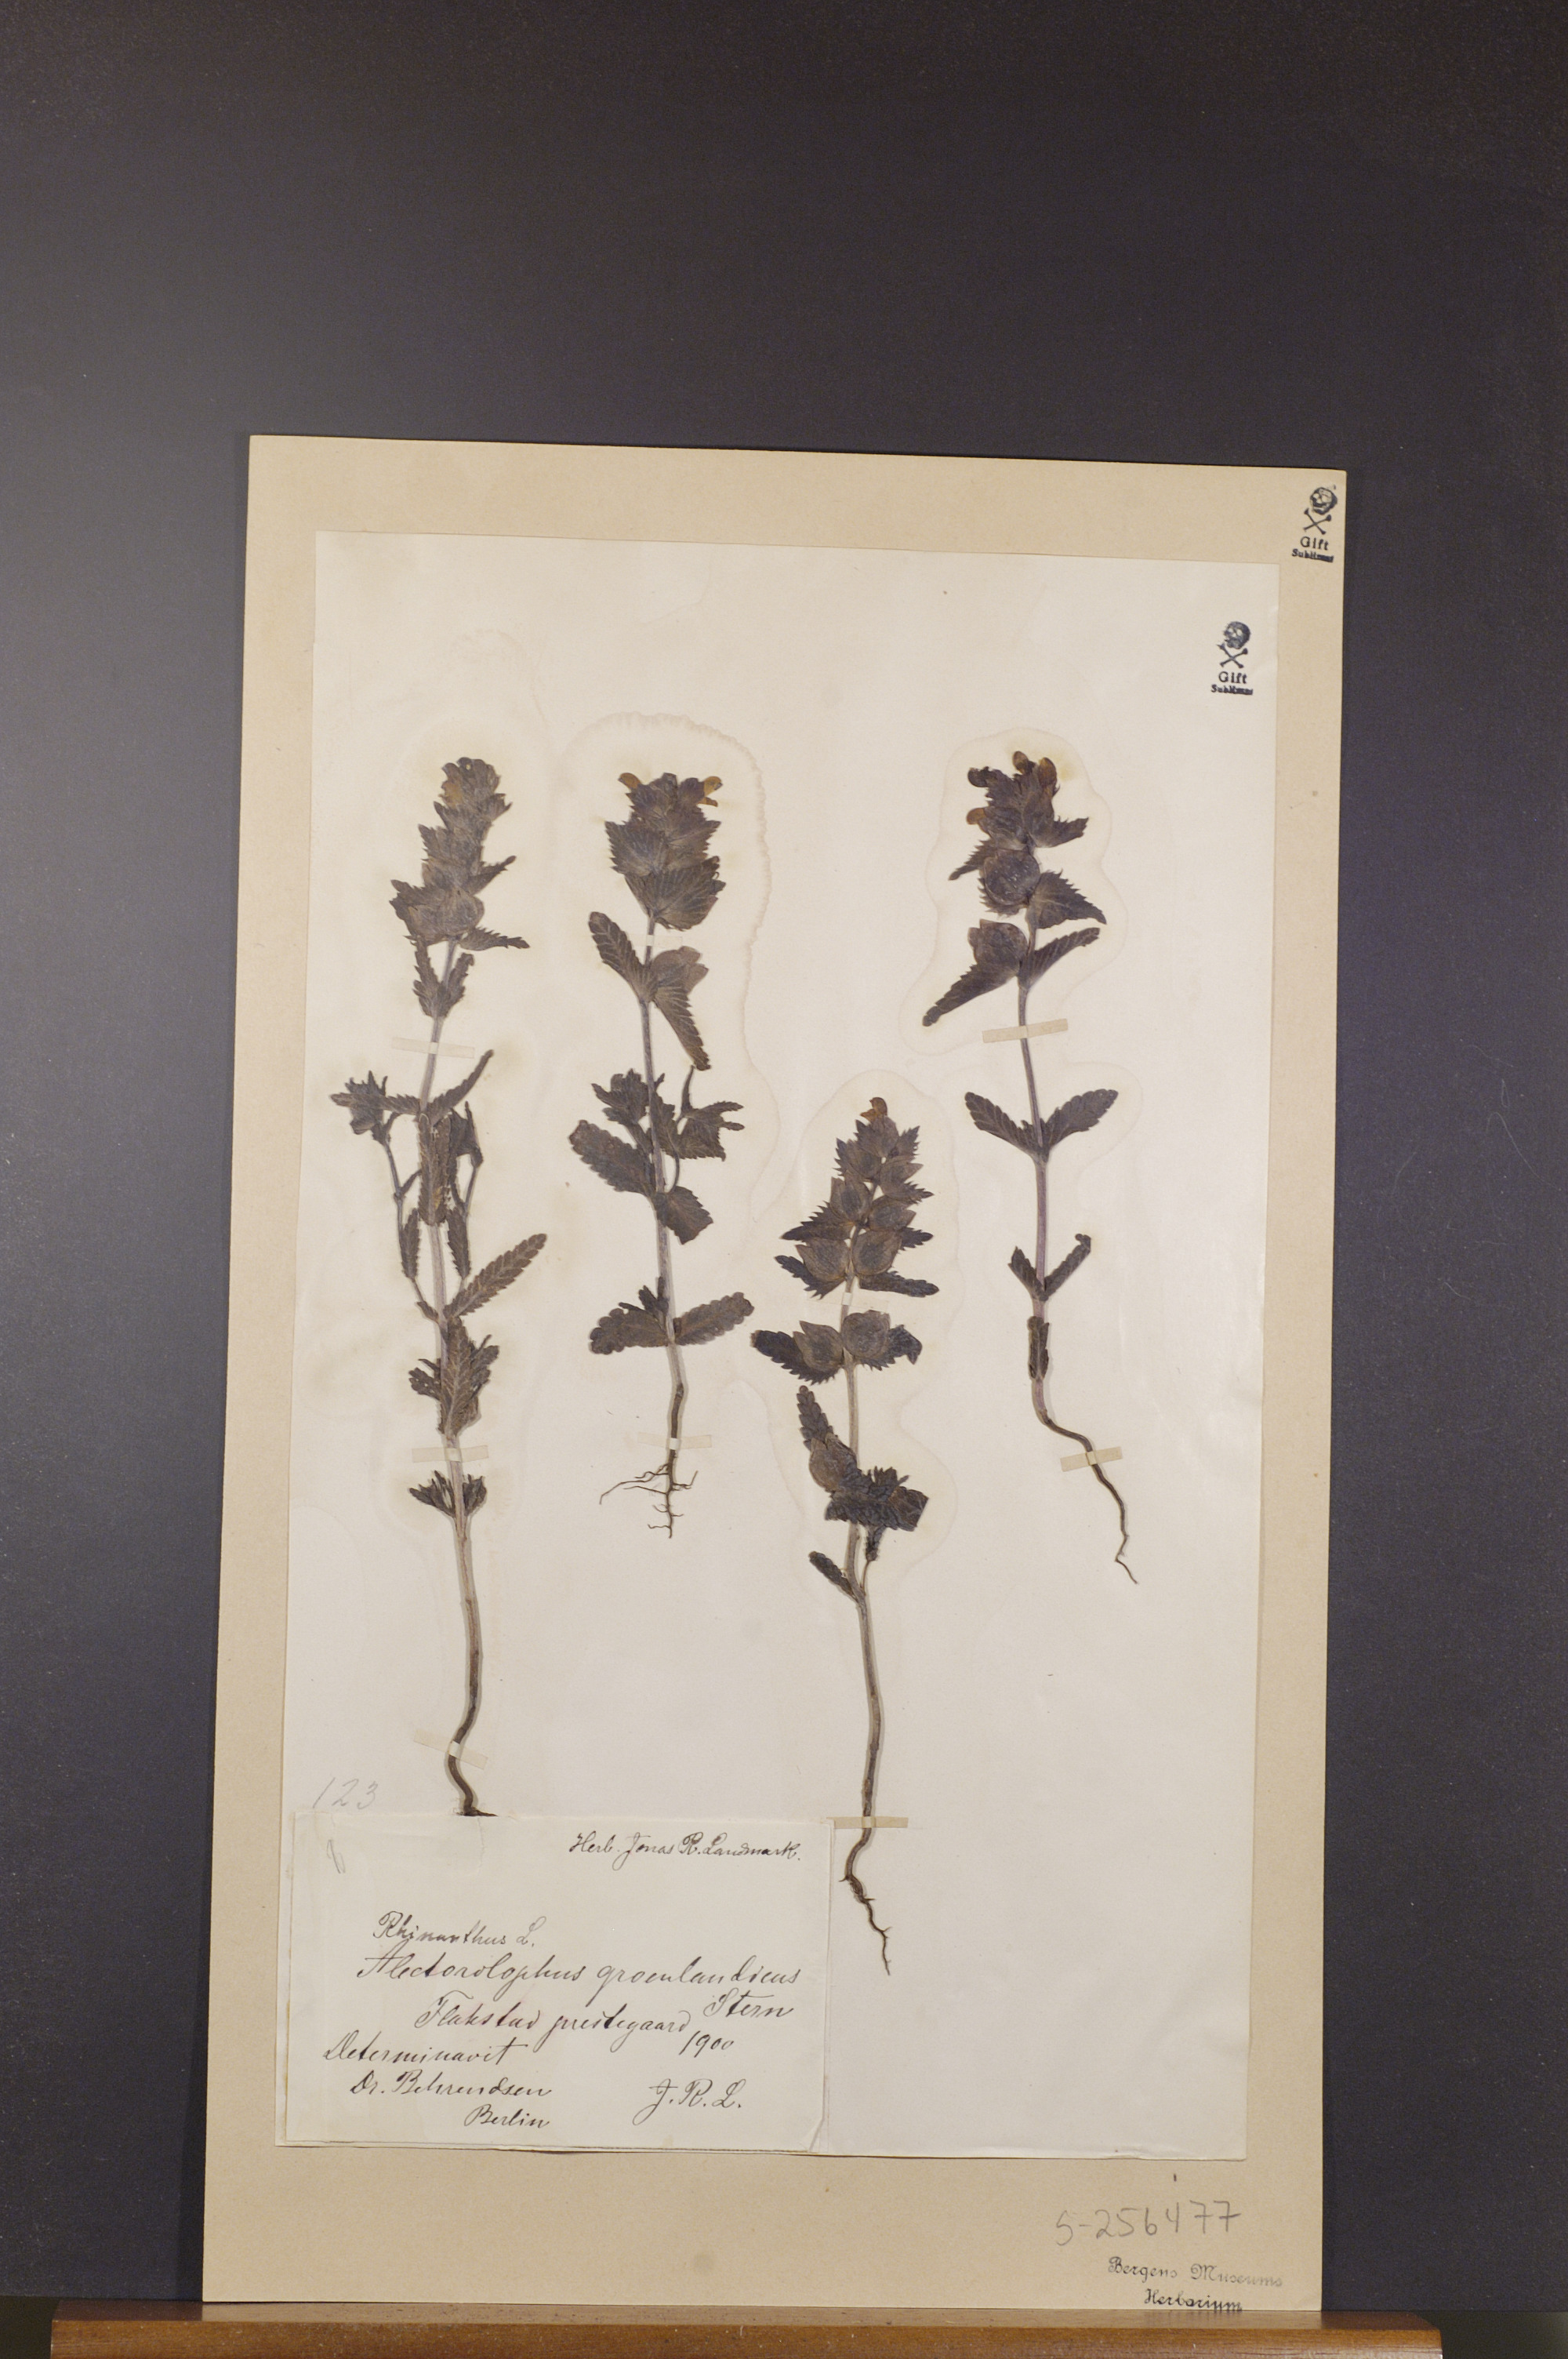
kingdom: Plantae
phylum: Tracheophyta
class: Magnoliopsida
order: Lamiales
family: Orobanchaceae
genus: Rhinanthus
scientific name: Rhinanthus groenlandicus
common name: Little yellow rattle
